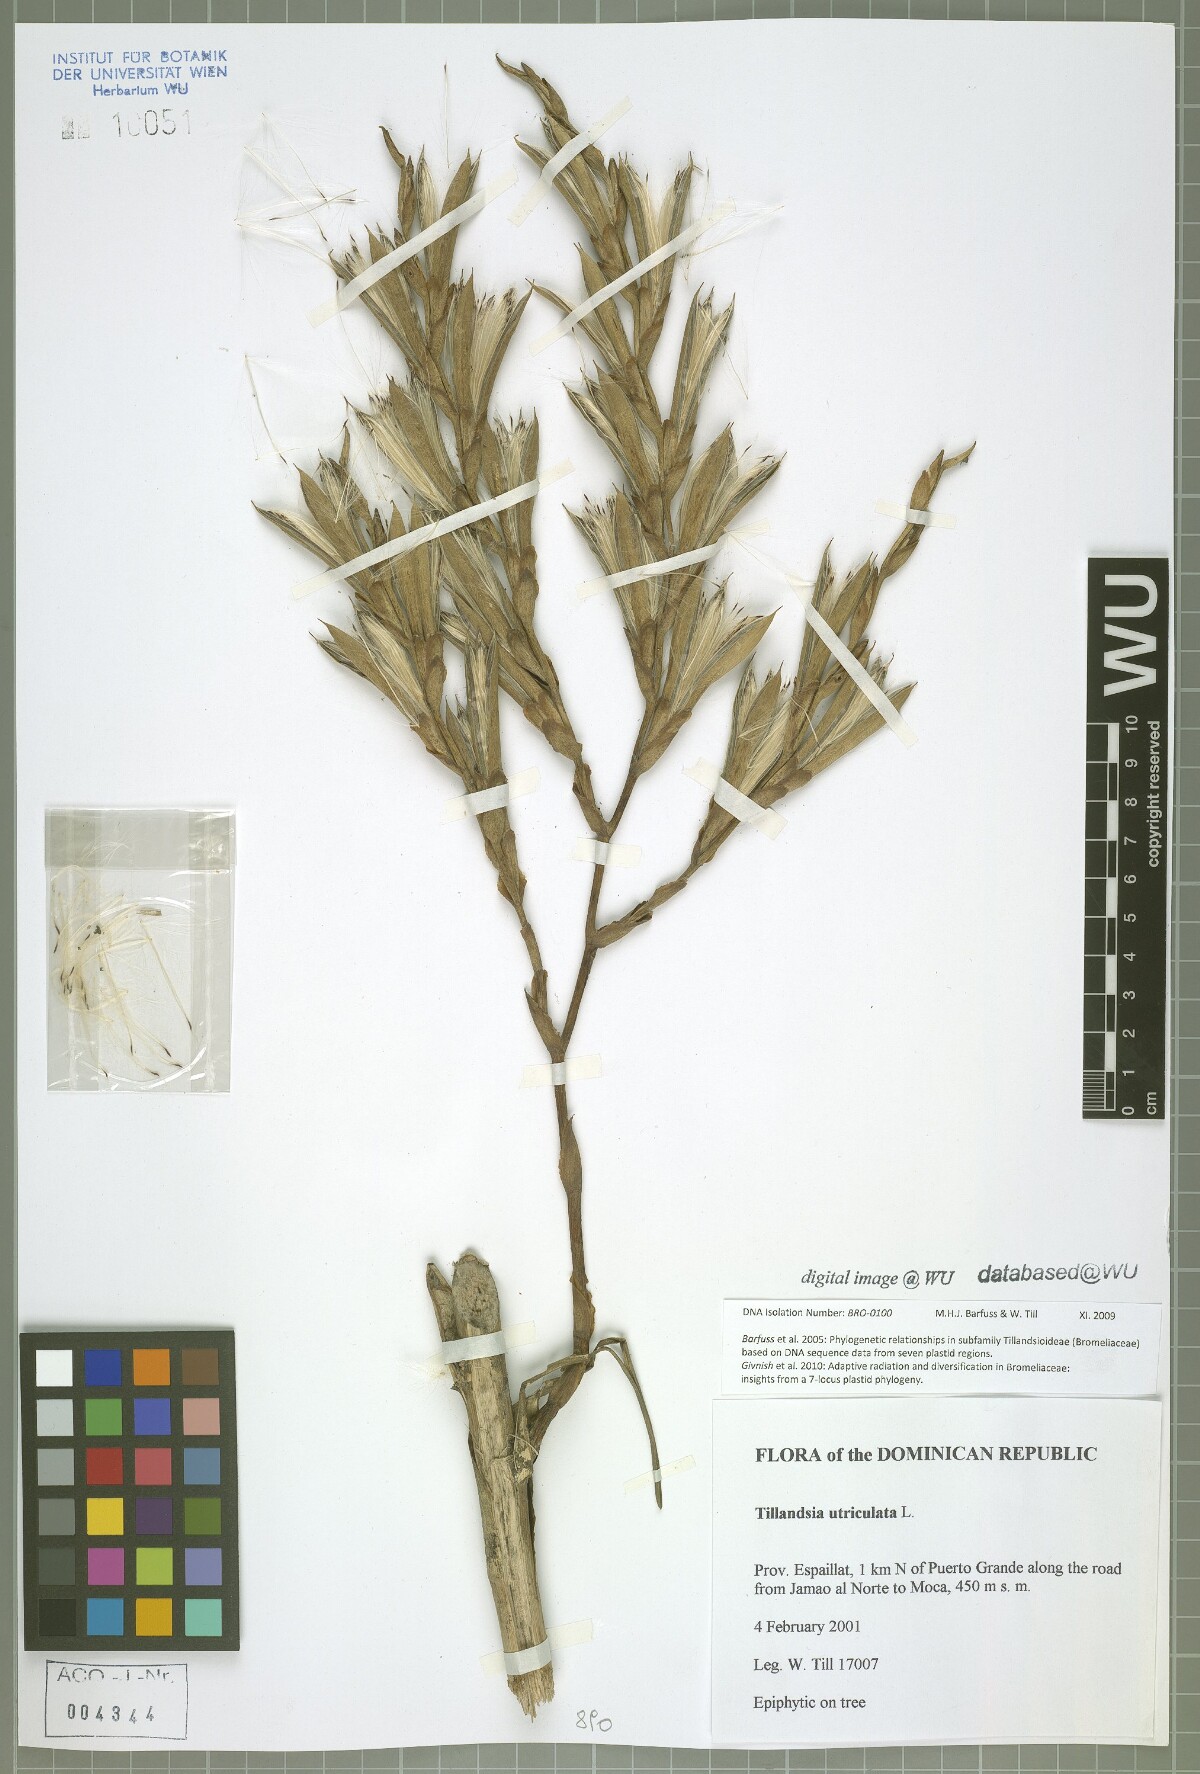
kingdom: Plantae
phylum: Tracheophyta
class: Liliopsida
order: Poales
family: Bromeliaceae
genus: Tillandsia
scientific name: Tillandsia utriculata
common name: Wild pine
